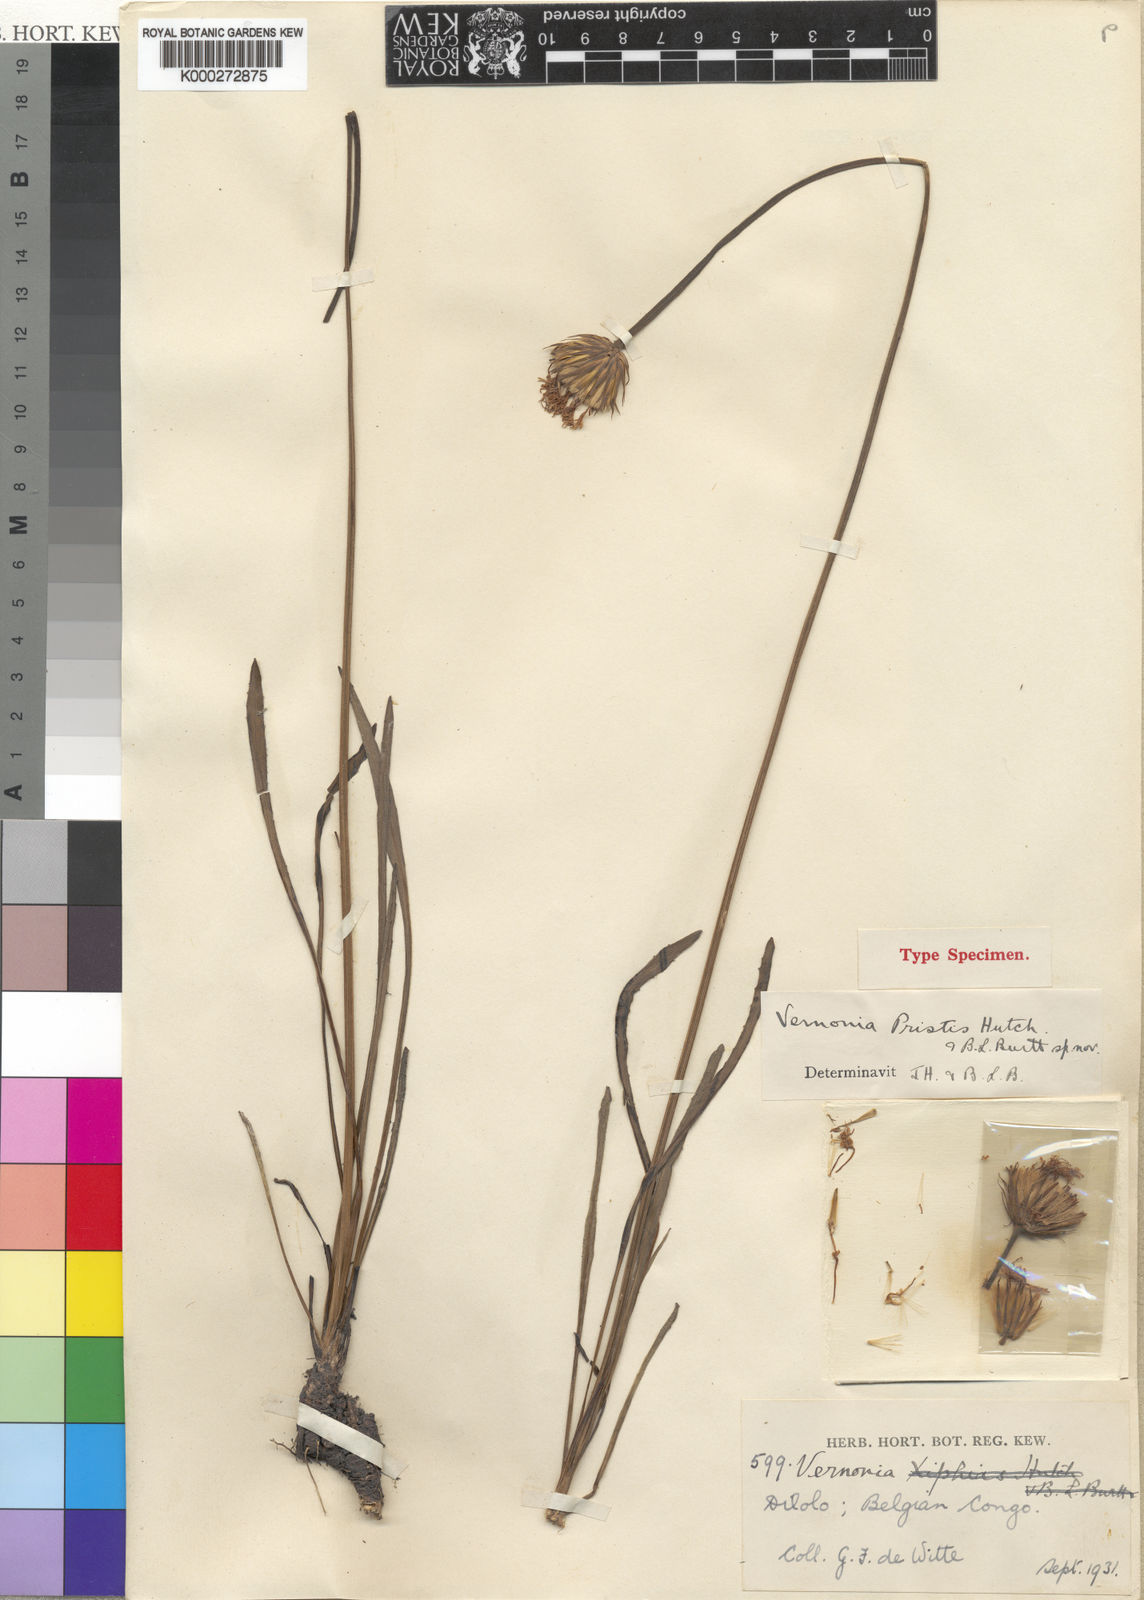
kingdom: Plantae
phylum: Tracheophyta
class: Magnoliopsida
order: Asterales
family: Asteraceae
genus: Linzia
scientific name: Linzia gerberiformis
